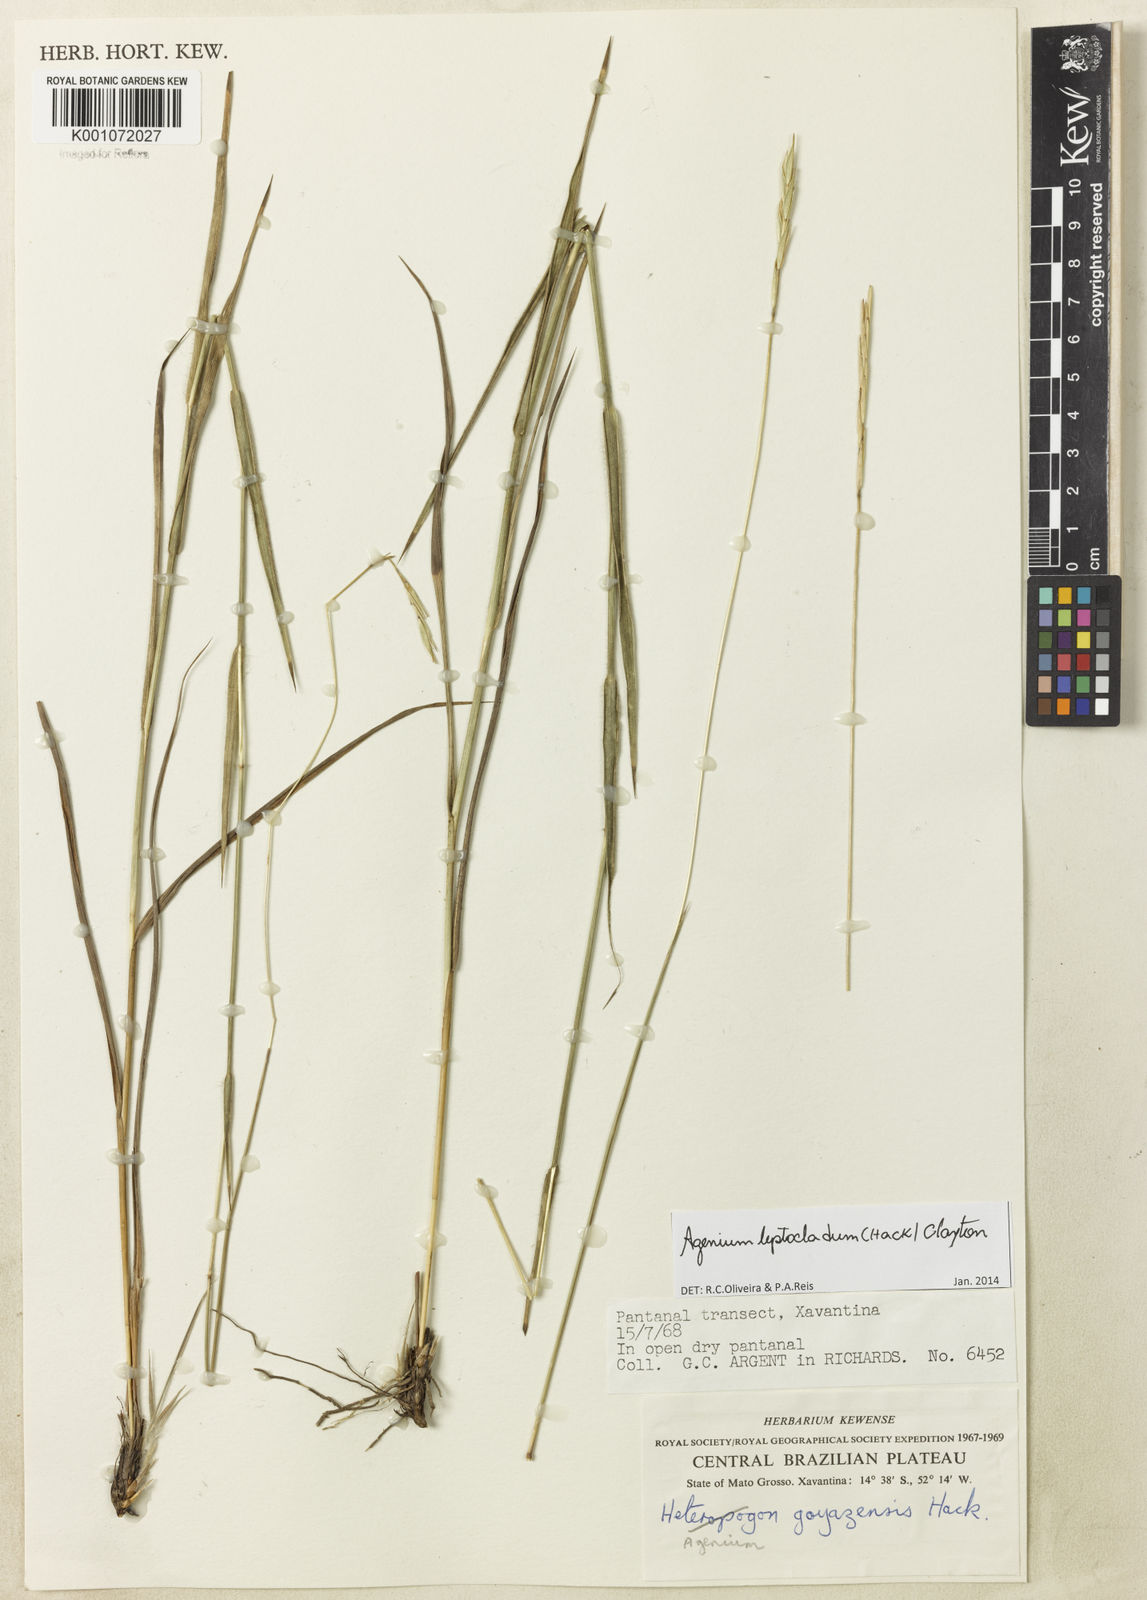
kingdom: Plantae
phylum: Tracheophyta
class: Liliopsida
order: Poales
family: Poaceae
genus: Agenium
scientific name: Agenium leptocladum
